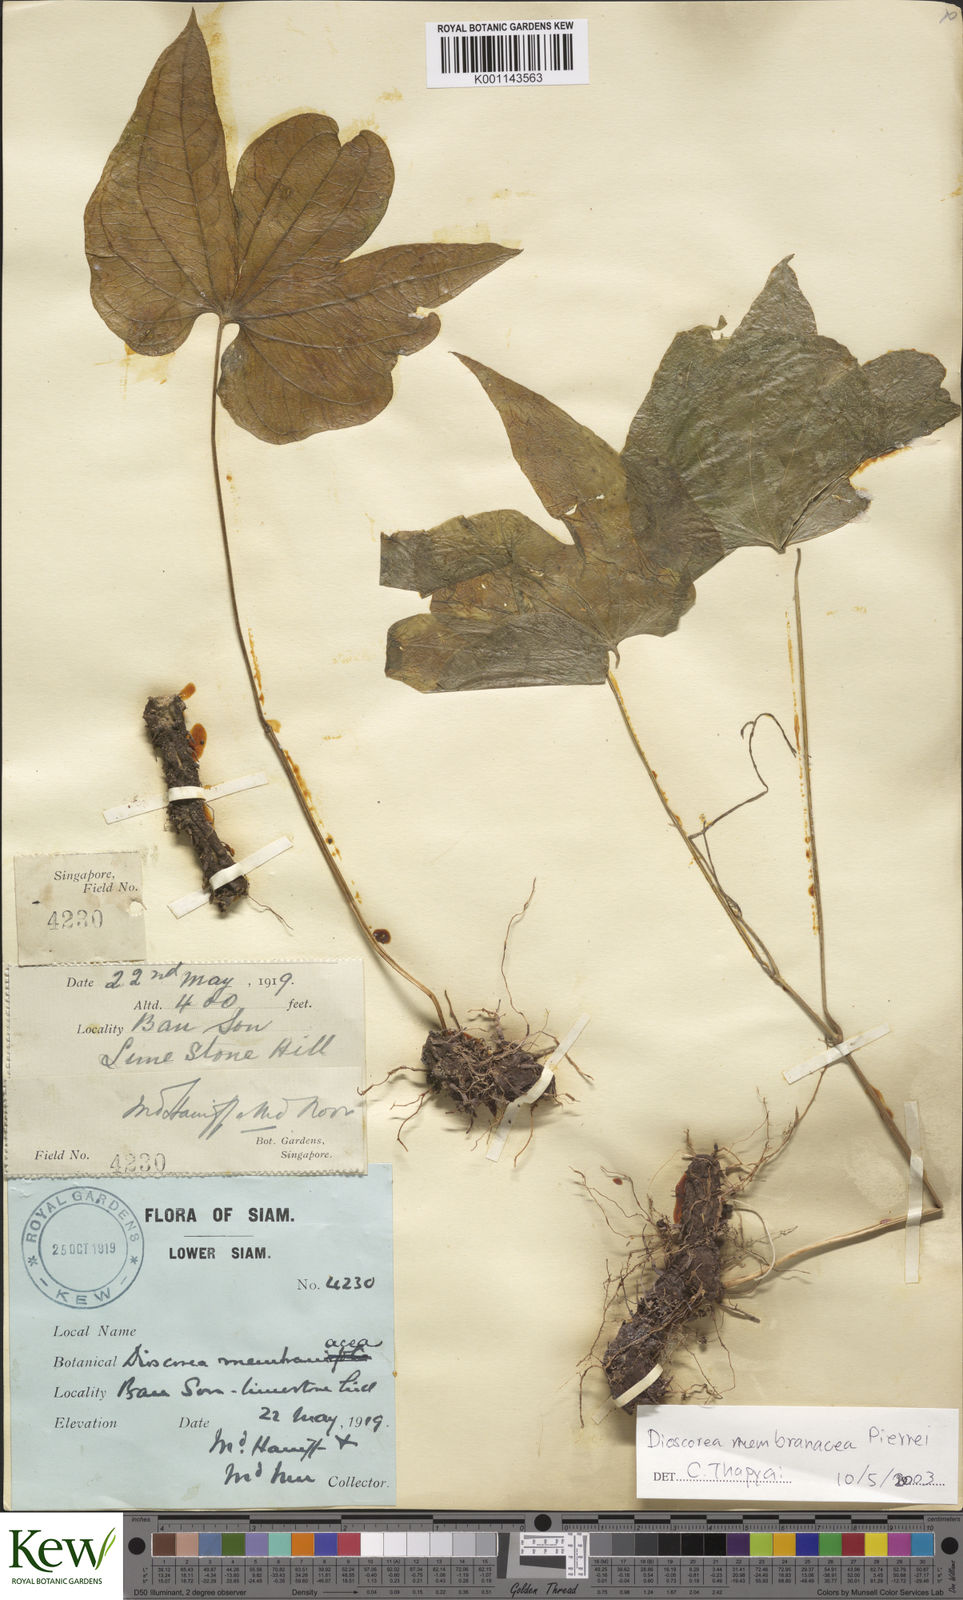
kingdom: Plantae
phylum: Tracheophyta
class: Liliopsida
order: Dioscoreales
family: Dioscoreaceae
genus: Dioscorea
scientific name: Dioscorea membranacea
